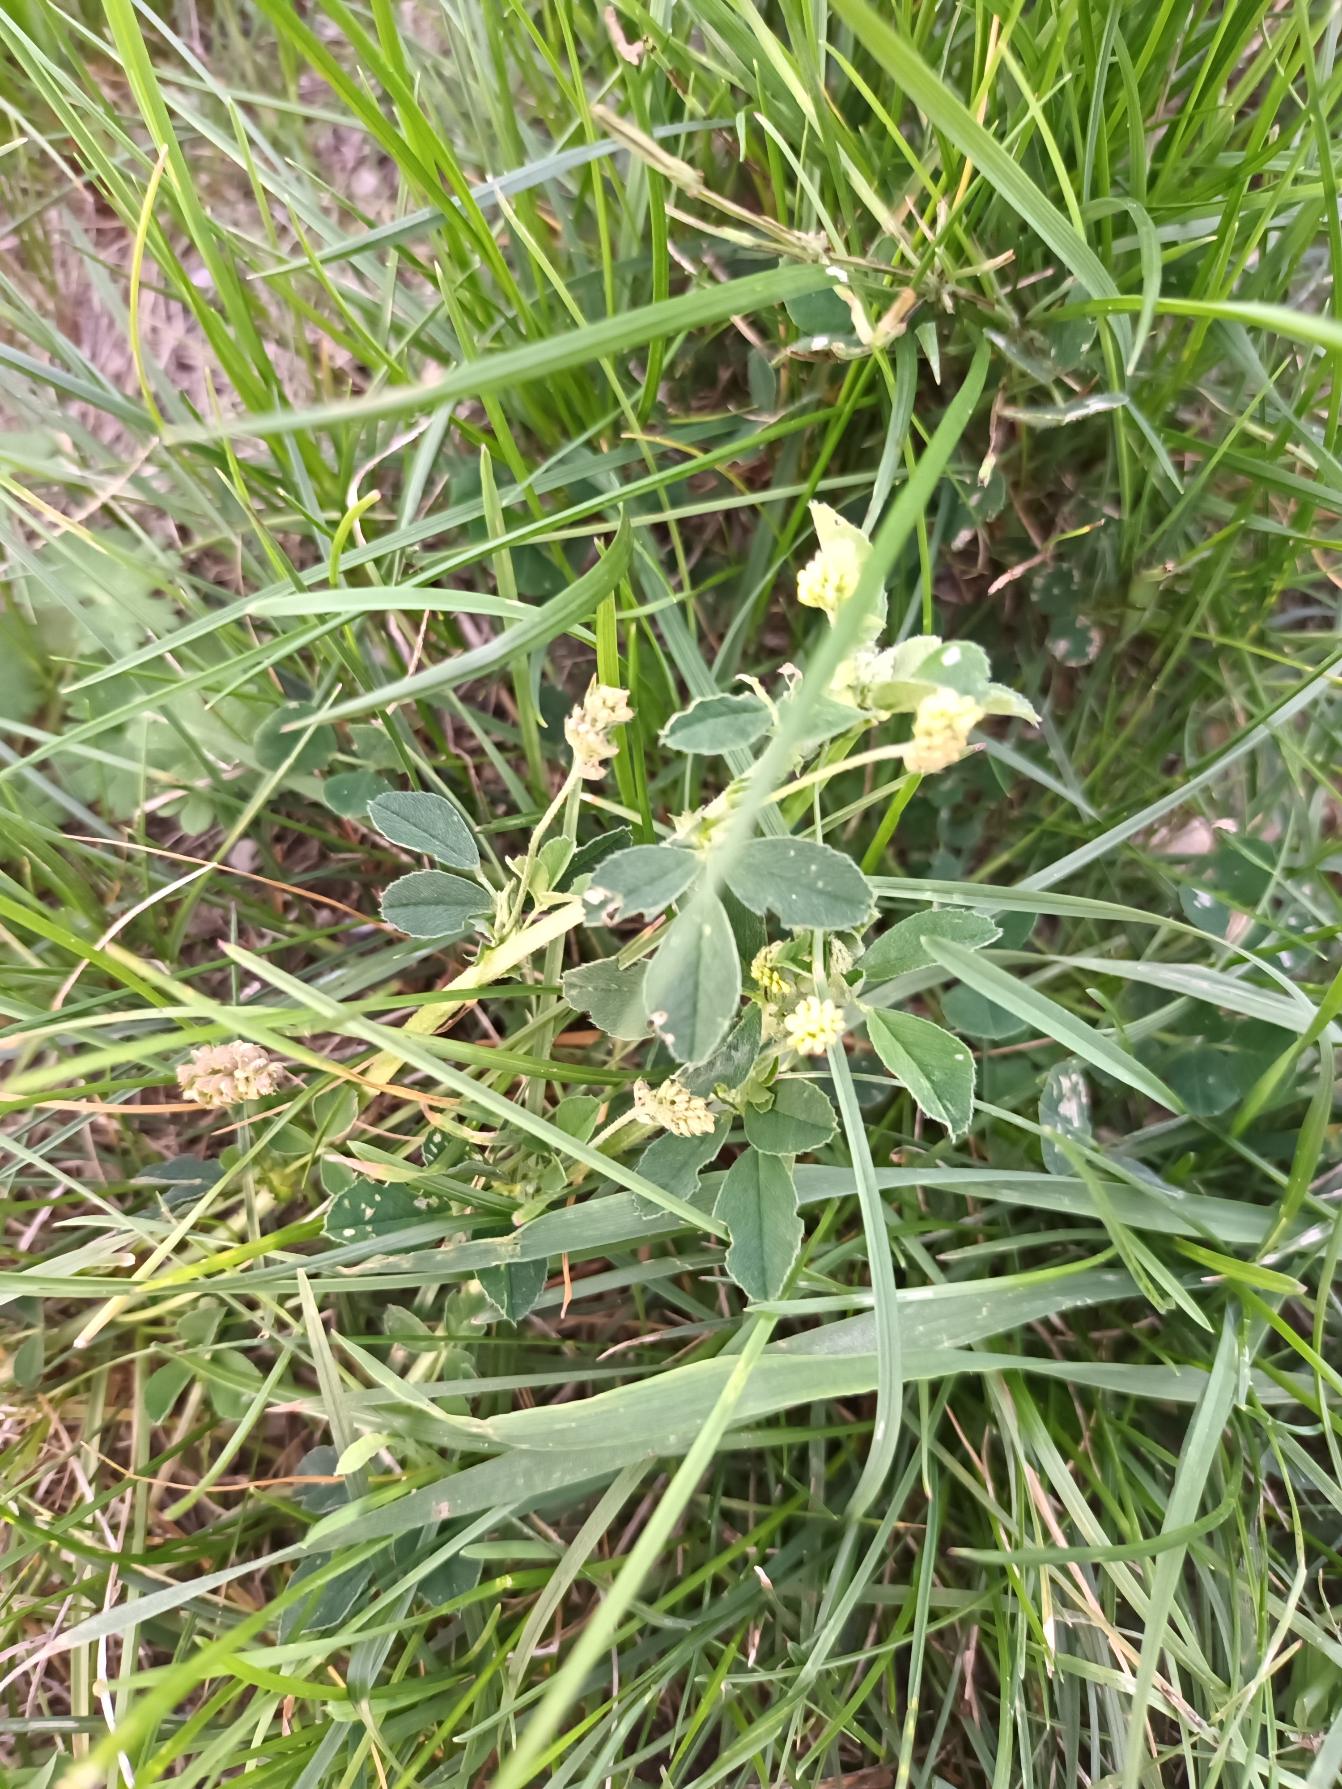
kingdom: Plantae
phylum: Tracheophyta
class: Magnoliopsida
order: Fabales
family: Fabaceae
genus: Medicago
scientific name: Medicago lupulina
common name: Humle-sneglebælg
